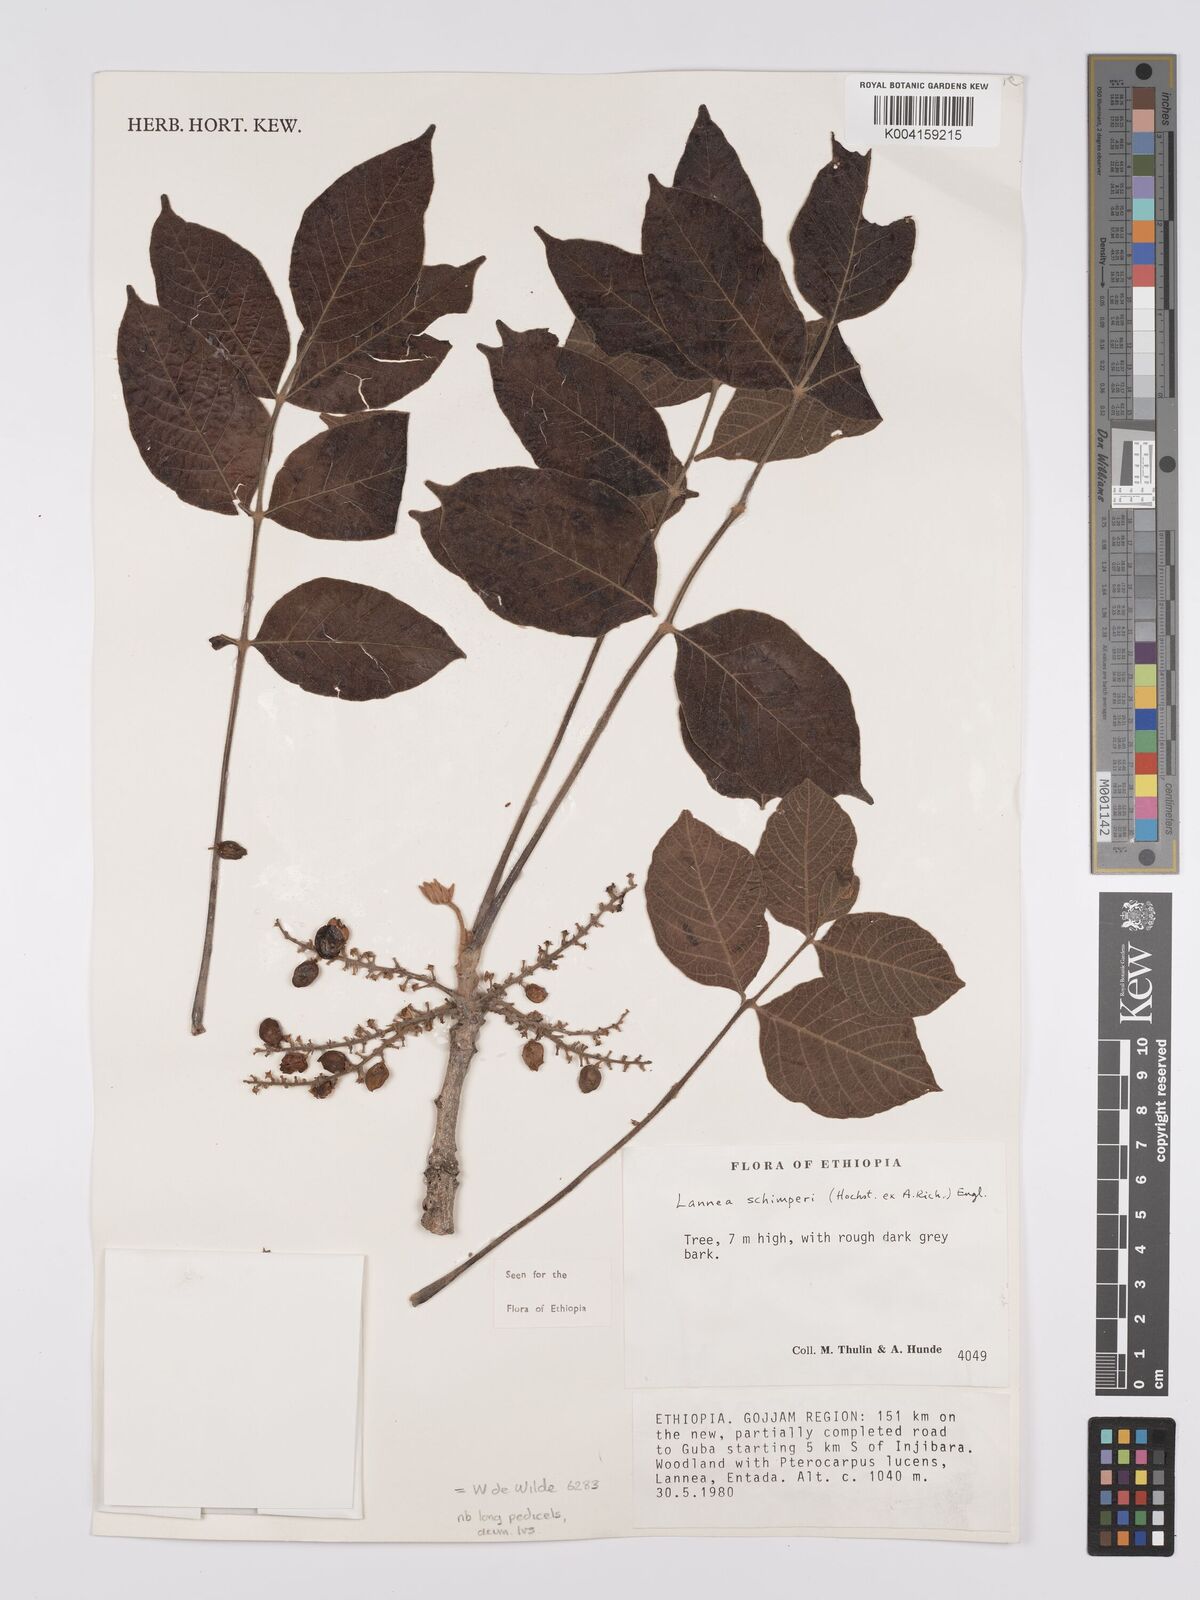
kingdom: Plantae
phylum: Tracheophyta
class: Magnoliopsida
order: Sapindales
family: Anacardiaceae
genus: Lannea
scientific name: Lannea schimperi
